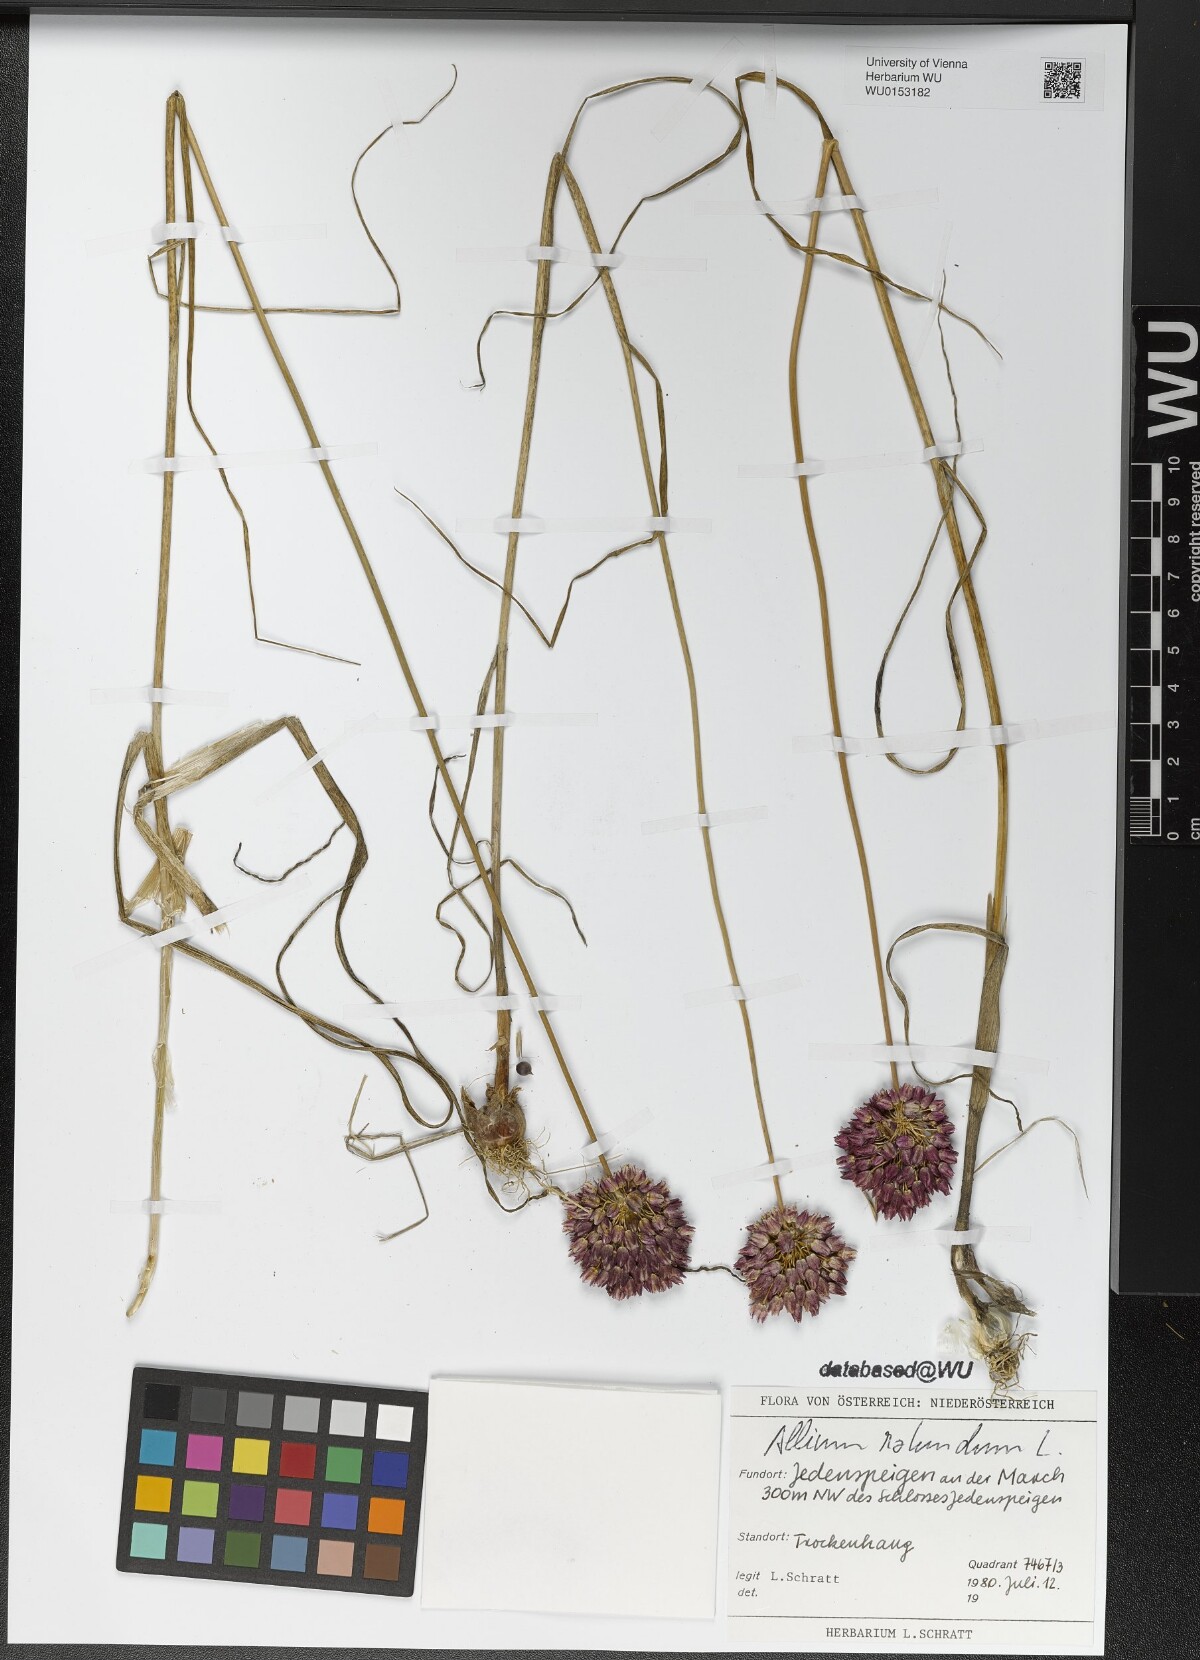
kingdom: Plantae
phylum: Tracheophyta
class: Liliopsida
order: Asparagales
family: Amaryllidaceae
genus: Allium
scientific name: Allium rotundum
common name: Sand leek
